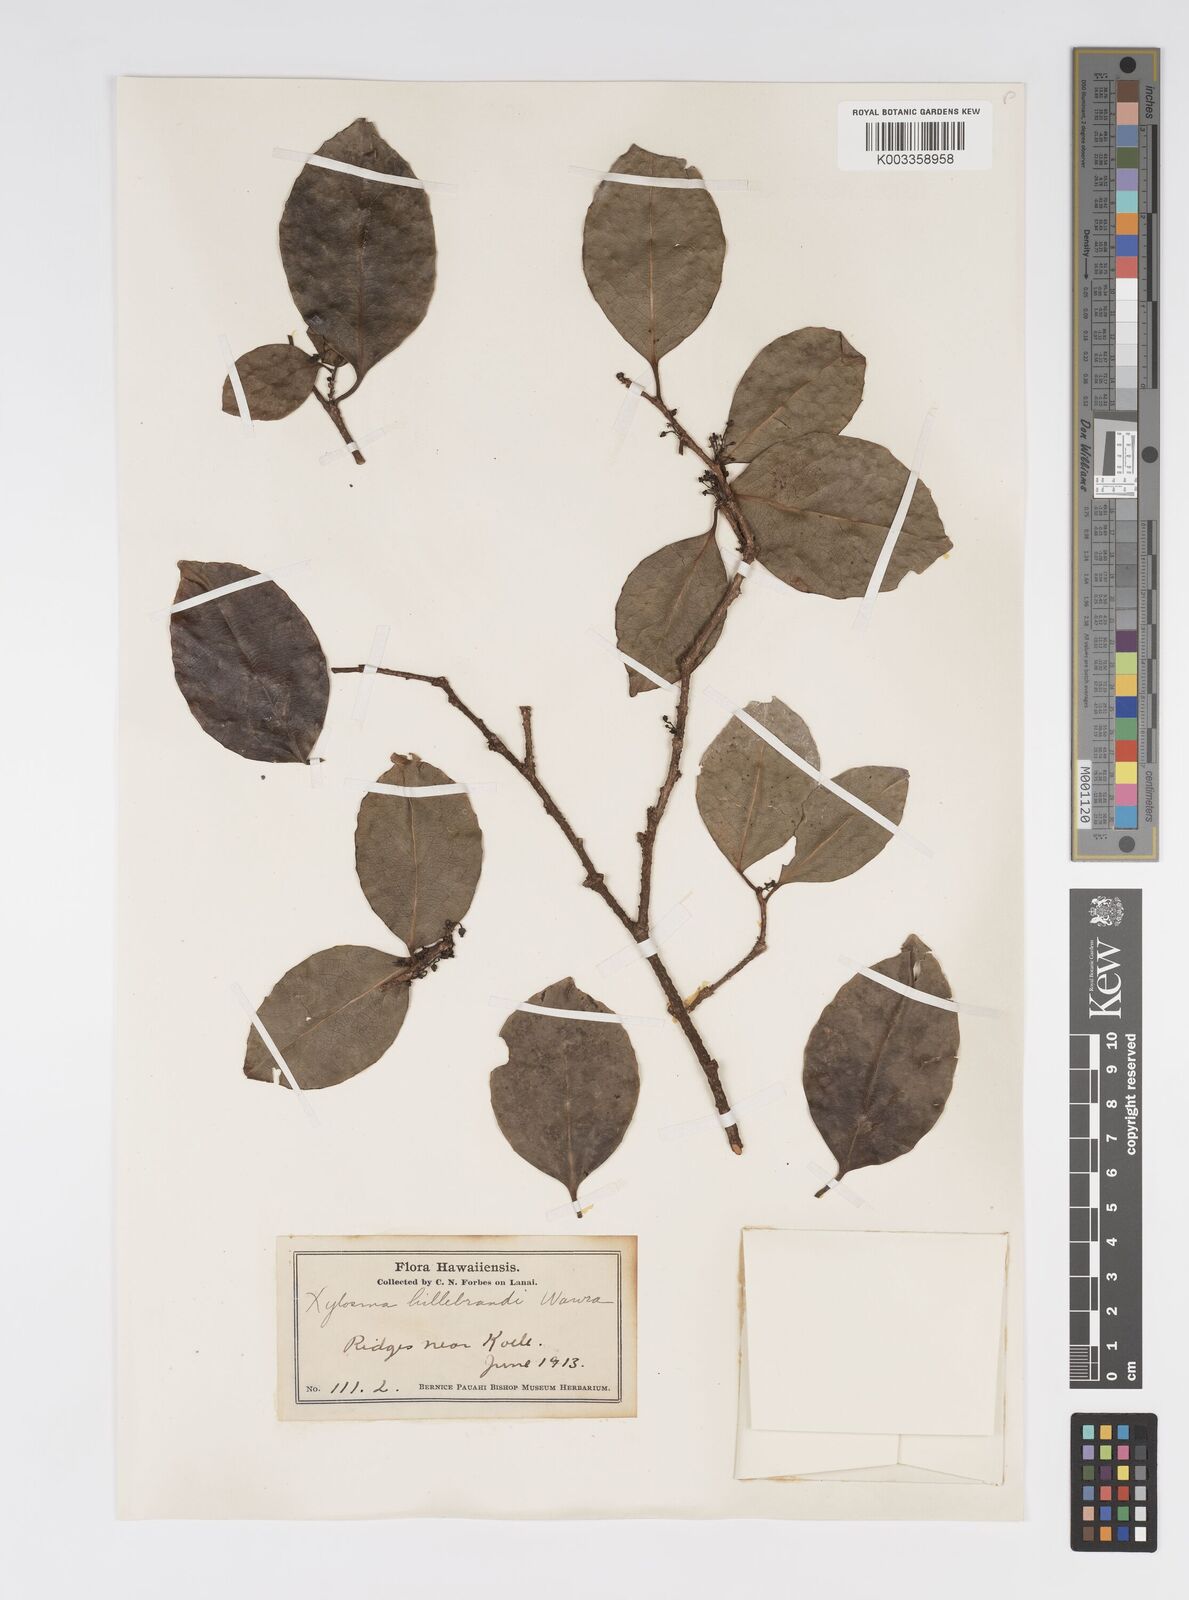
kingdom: Plantae
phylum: Tracheophyta
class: Magnoliopsida
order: Malpighiales
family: Salicaceae
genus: Xylosma
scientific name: Xylosma hawaiense
